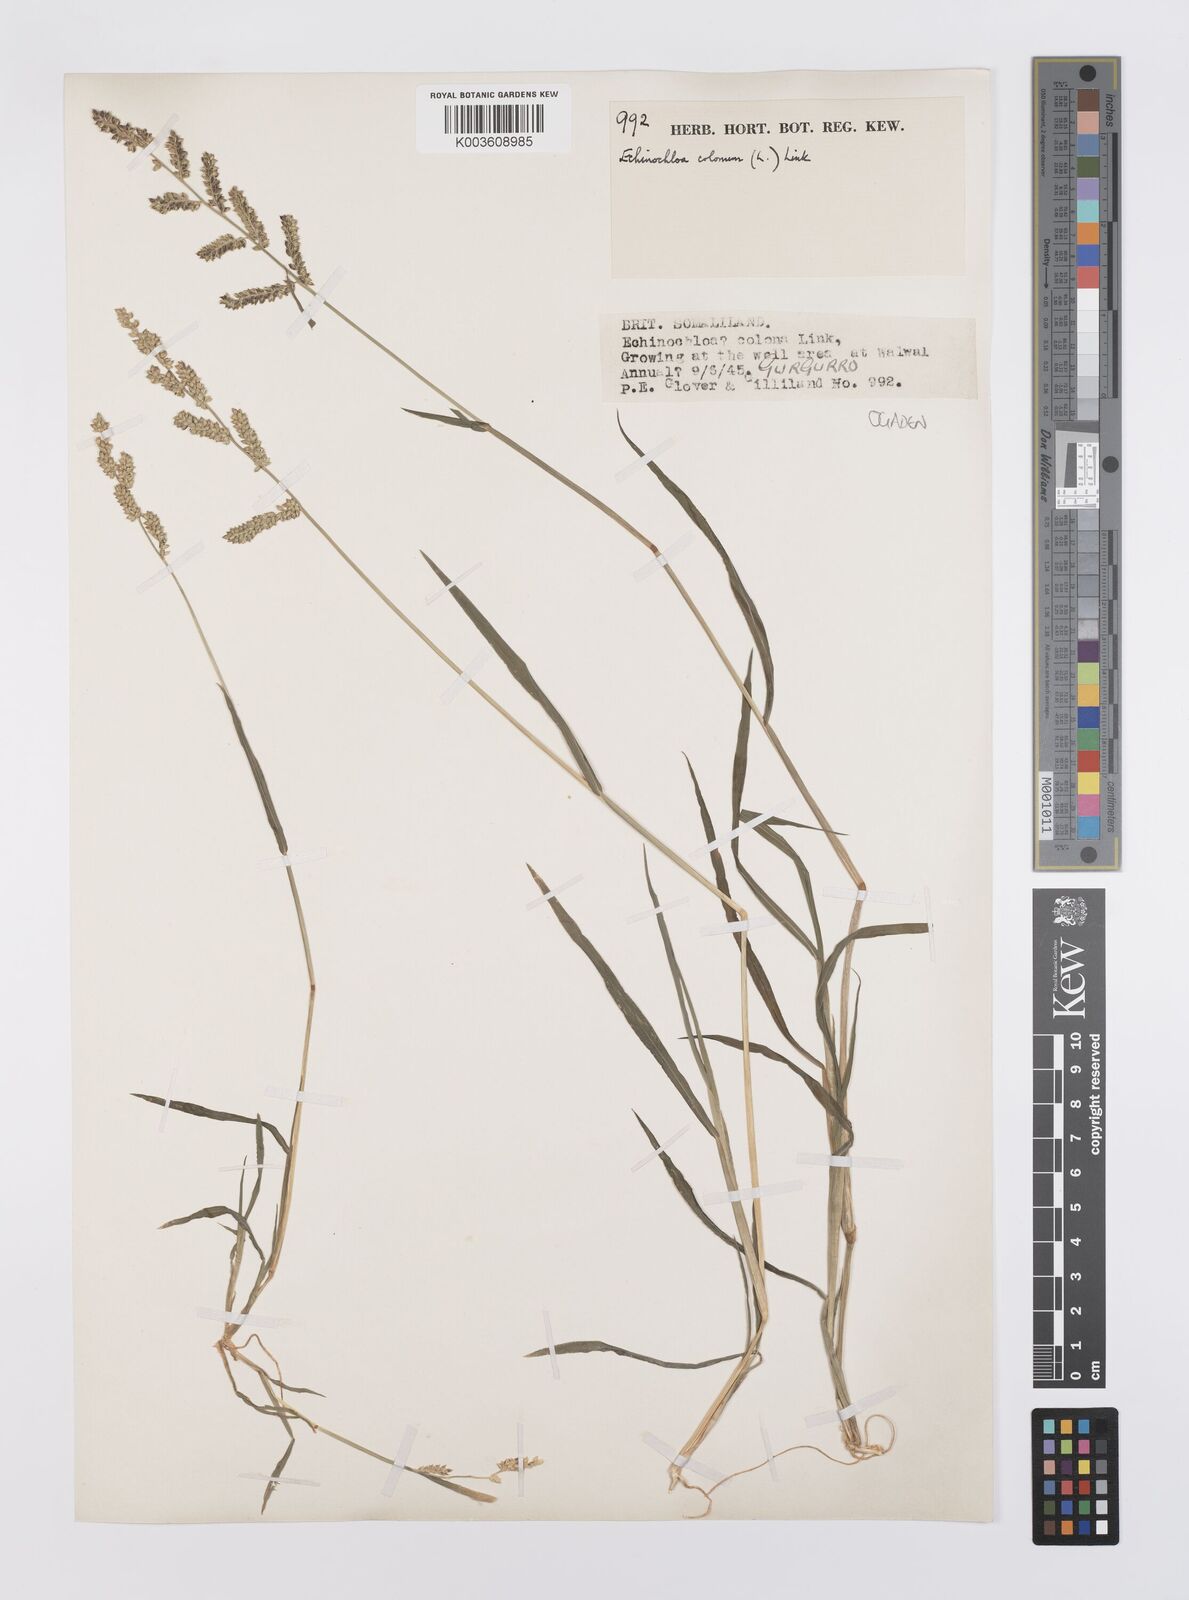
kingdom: Plantae
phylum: Tracheophyta
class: Liliopsida
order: Poales
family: Poaceae
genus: Echinochloa
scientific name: Echinochloa colonum
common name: Jungle rice
